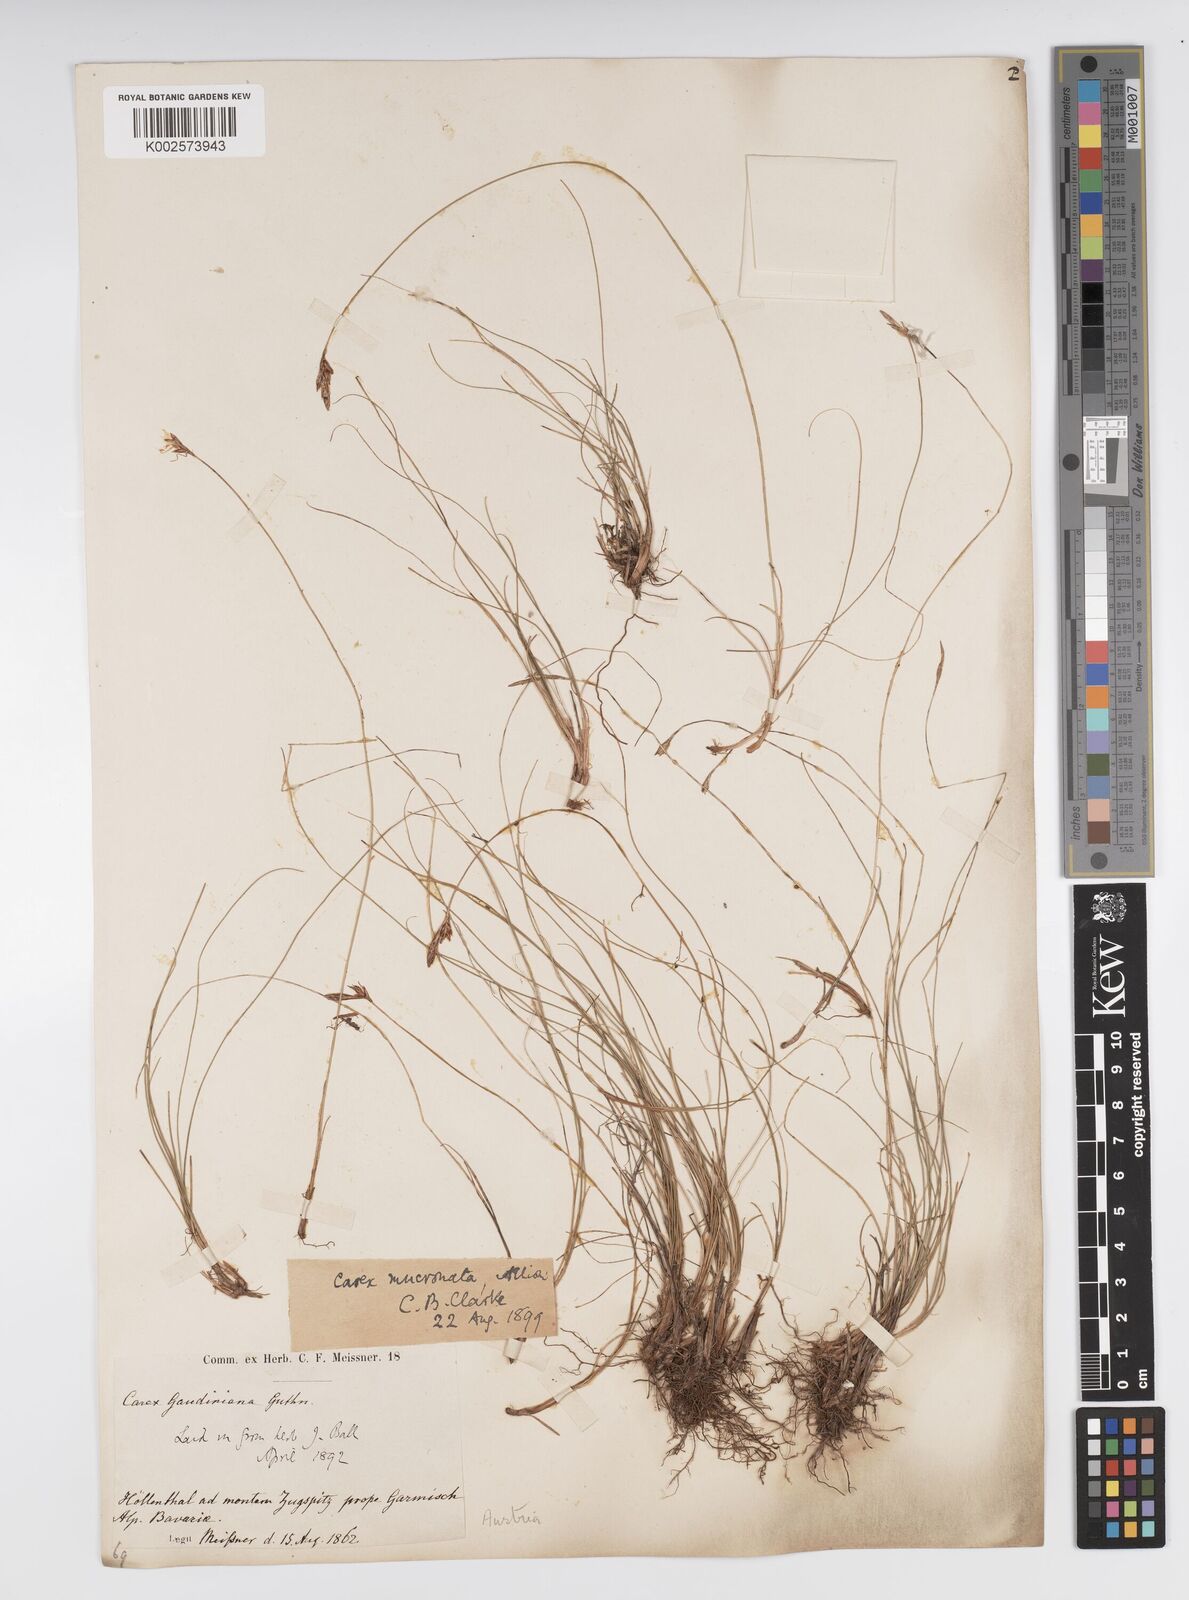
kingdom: Plantae
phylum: Tracheophyta
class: Liliopsida
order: Poales
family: Cyperaceae
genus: Carex
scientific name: Carex mucronata
